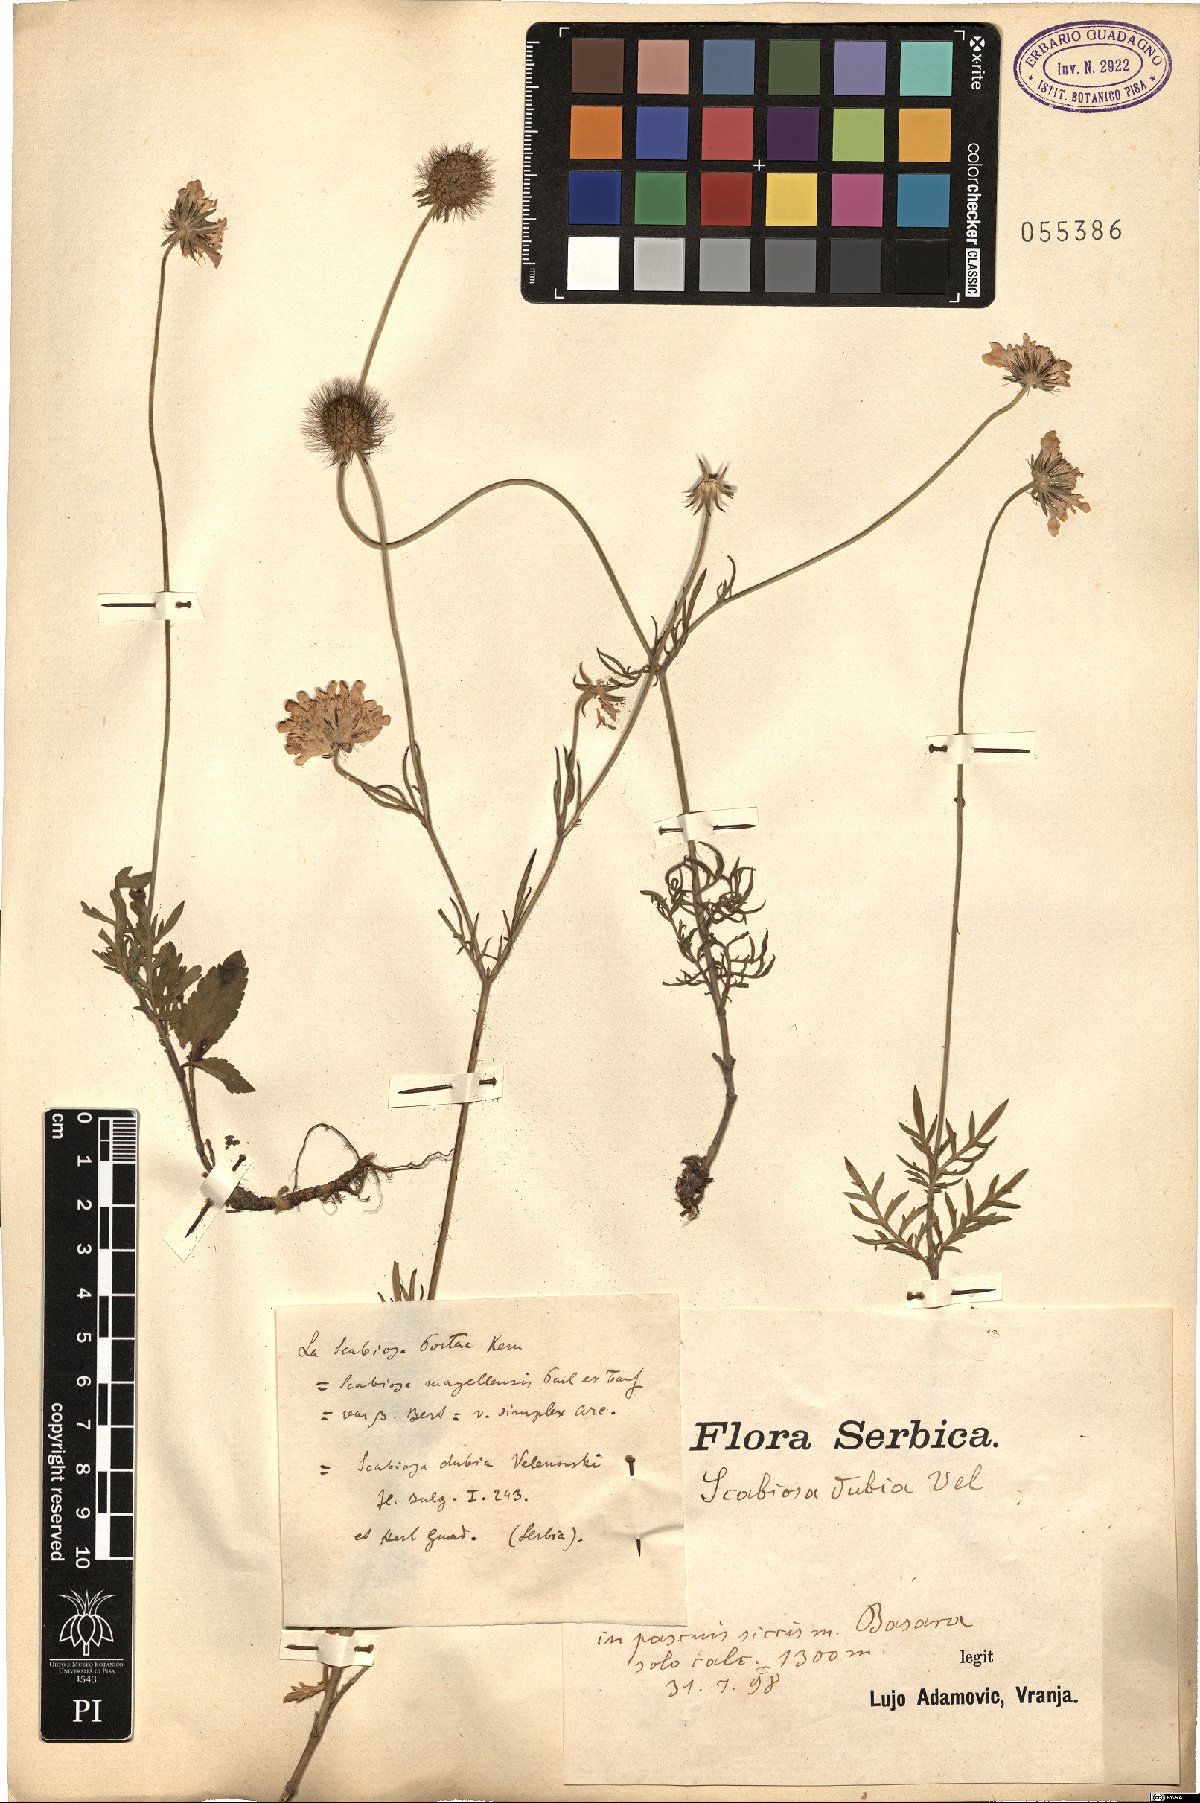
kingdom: Plantae
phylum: Tracheophyta
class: Magnoliopsida
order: Dipsacales
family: Caprifoliaceae
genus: Scabiosa
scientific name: Scabiosa taygetea
